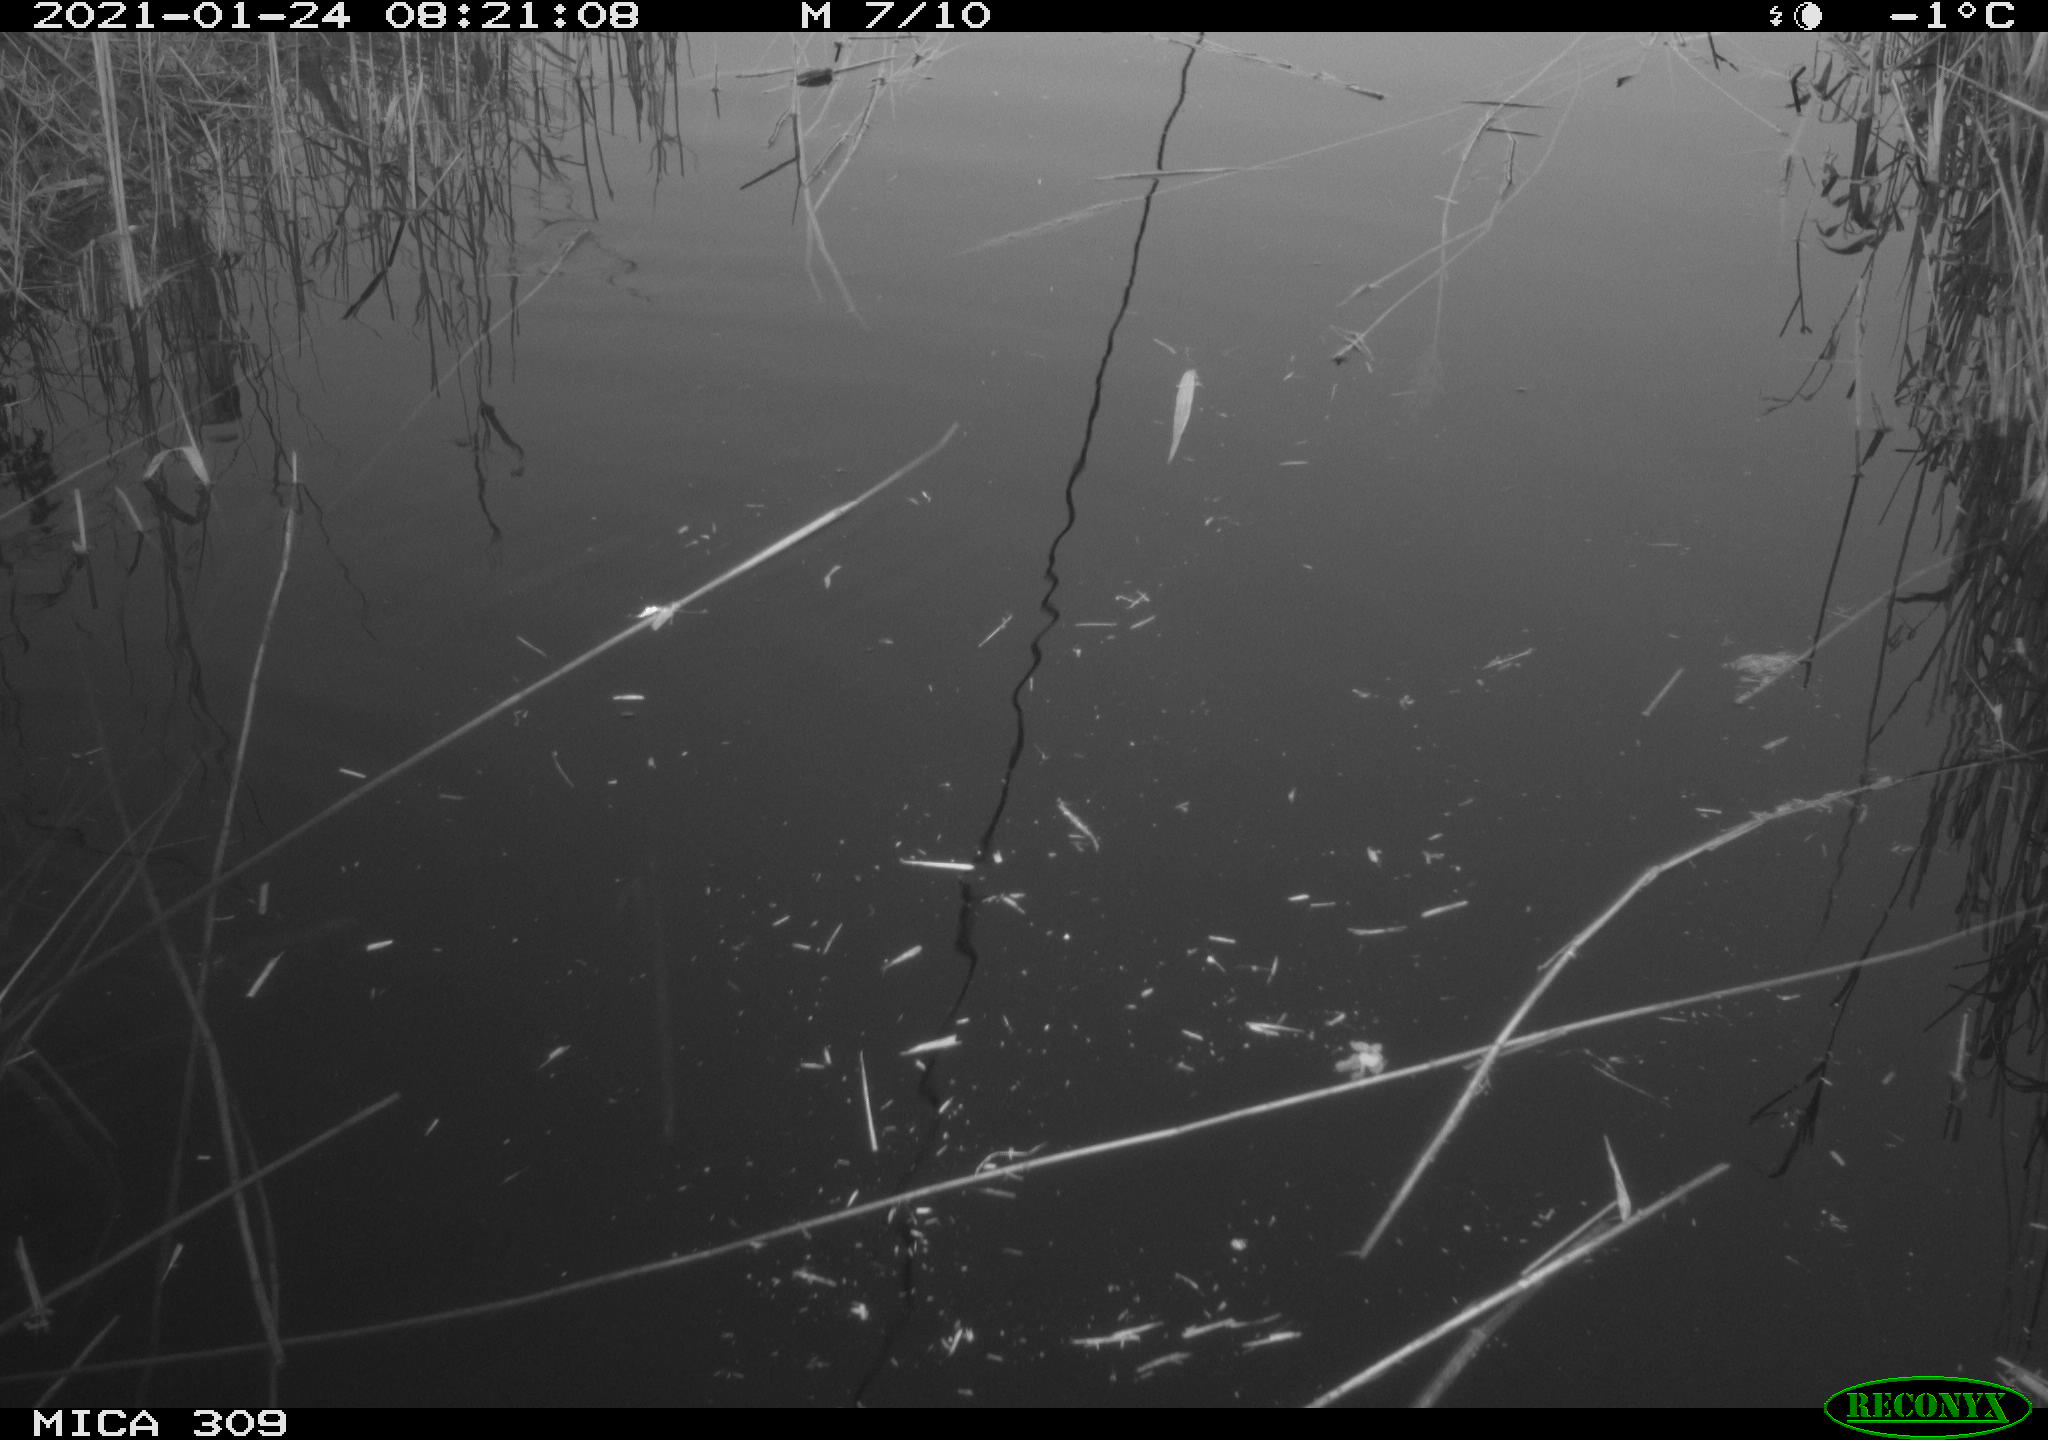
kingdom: Animalia
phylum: Chordata
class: Aves
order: Gruiformes
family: Rallidae
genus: Gallinula
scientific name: Gallinula chloropus
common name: Common moorhen
